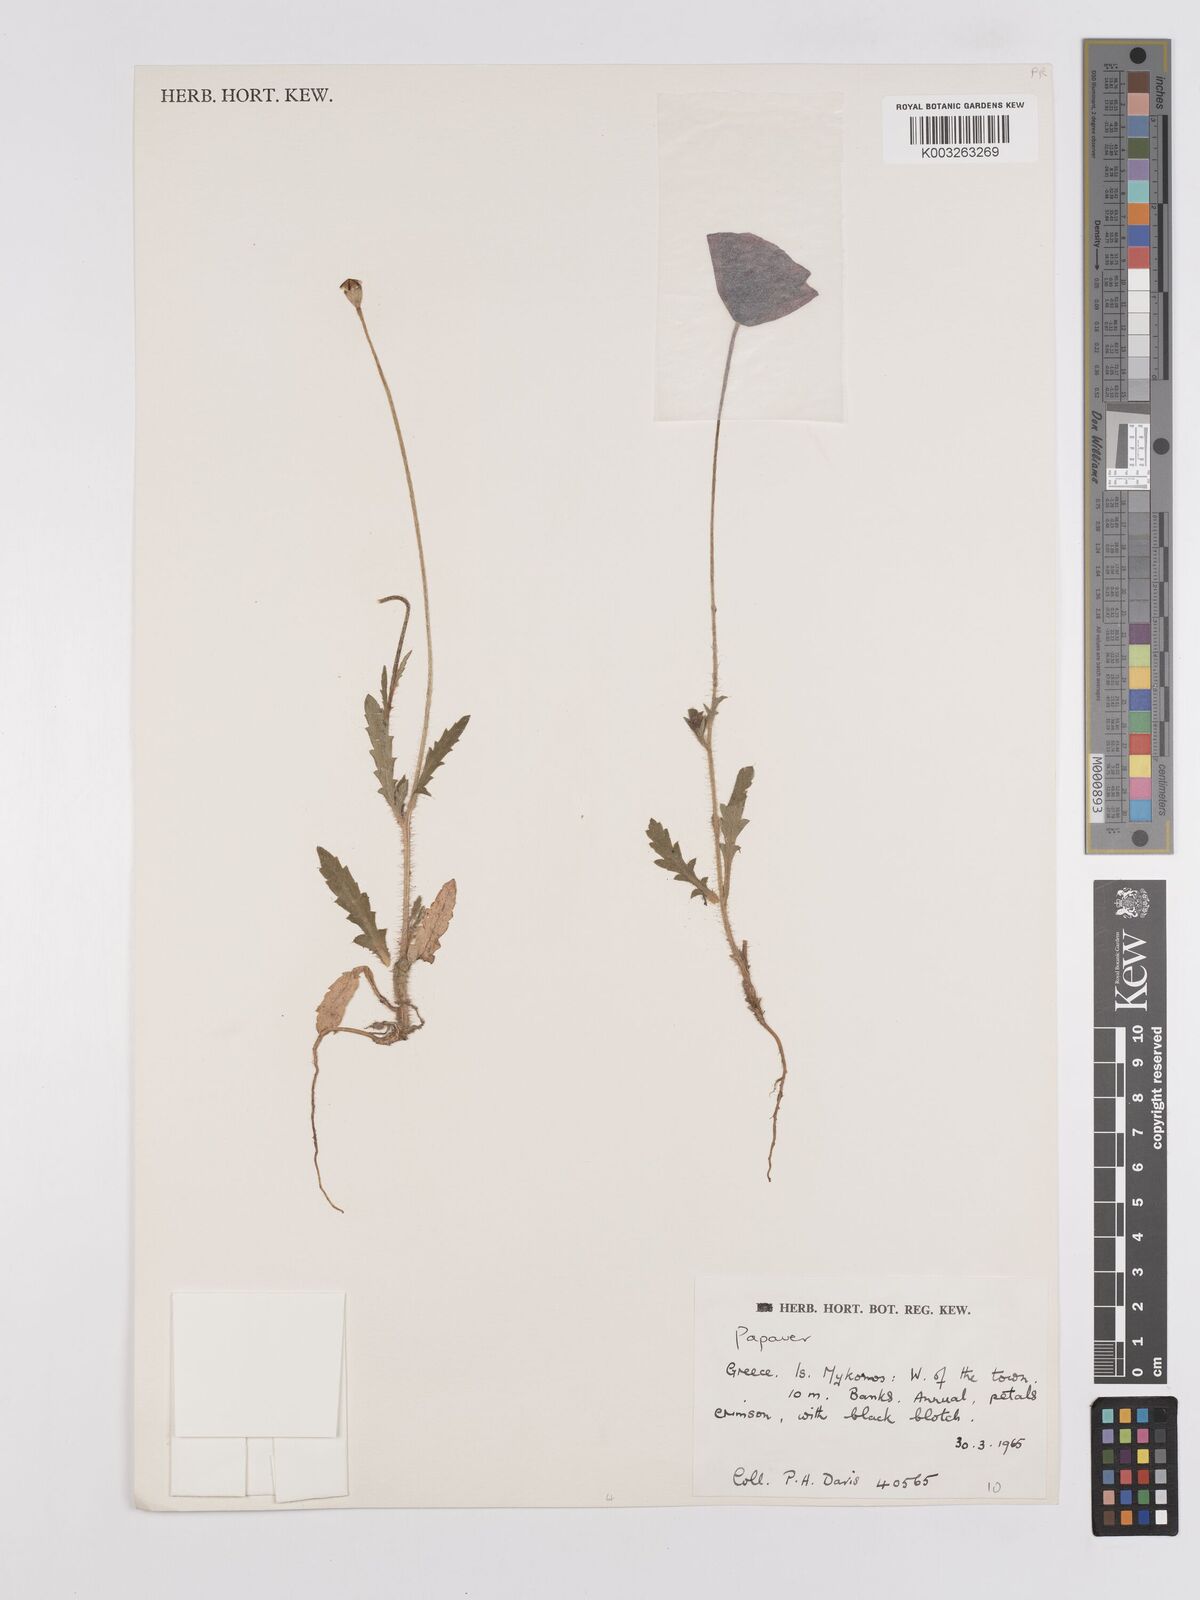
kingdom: Plantae
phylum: Tracheophyta
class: Magnoliopsida
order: Ranunculales
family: Papaveraceae
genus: Papaver
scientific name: Papaver
